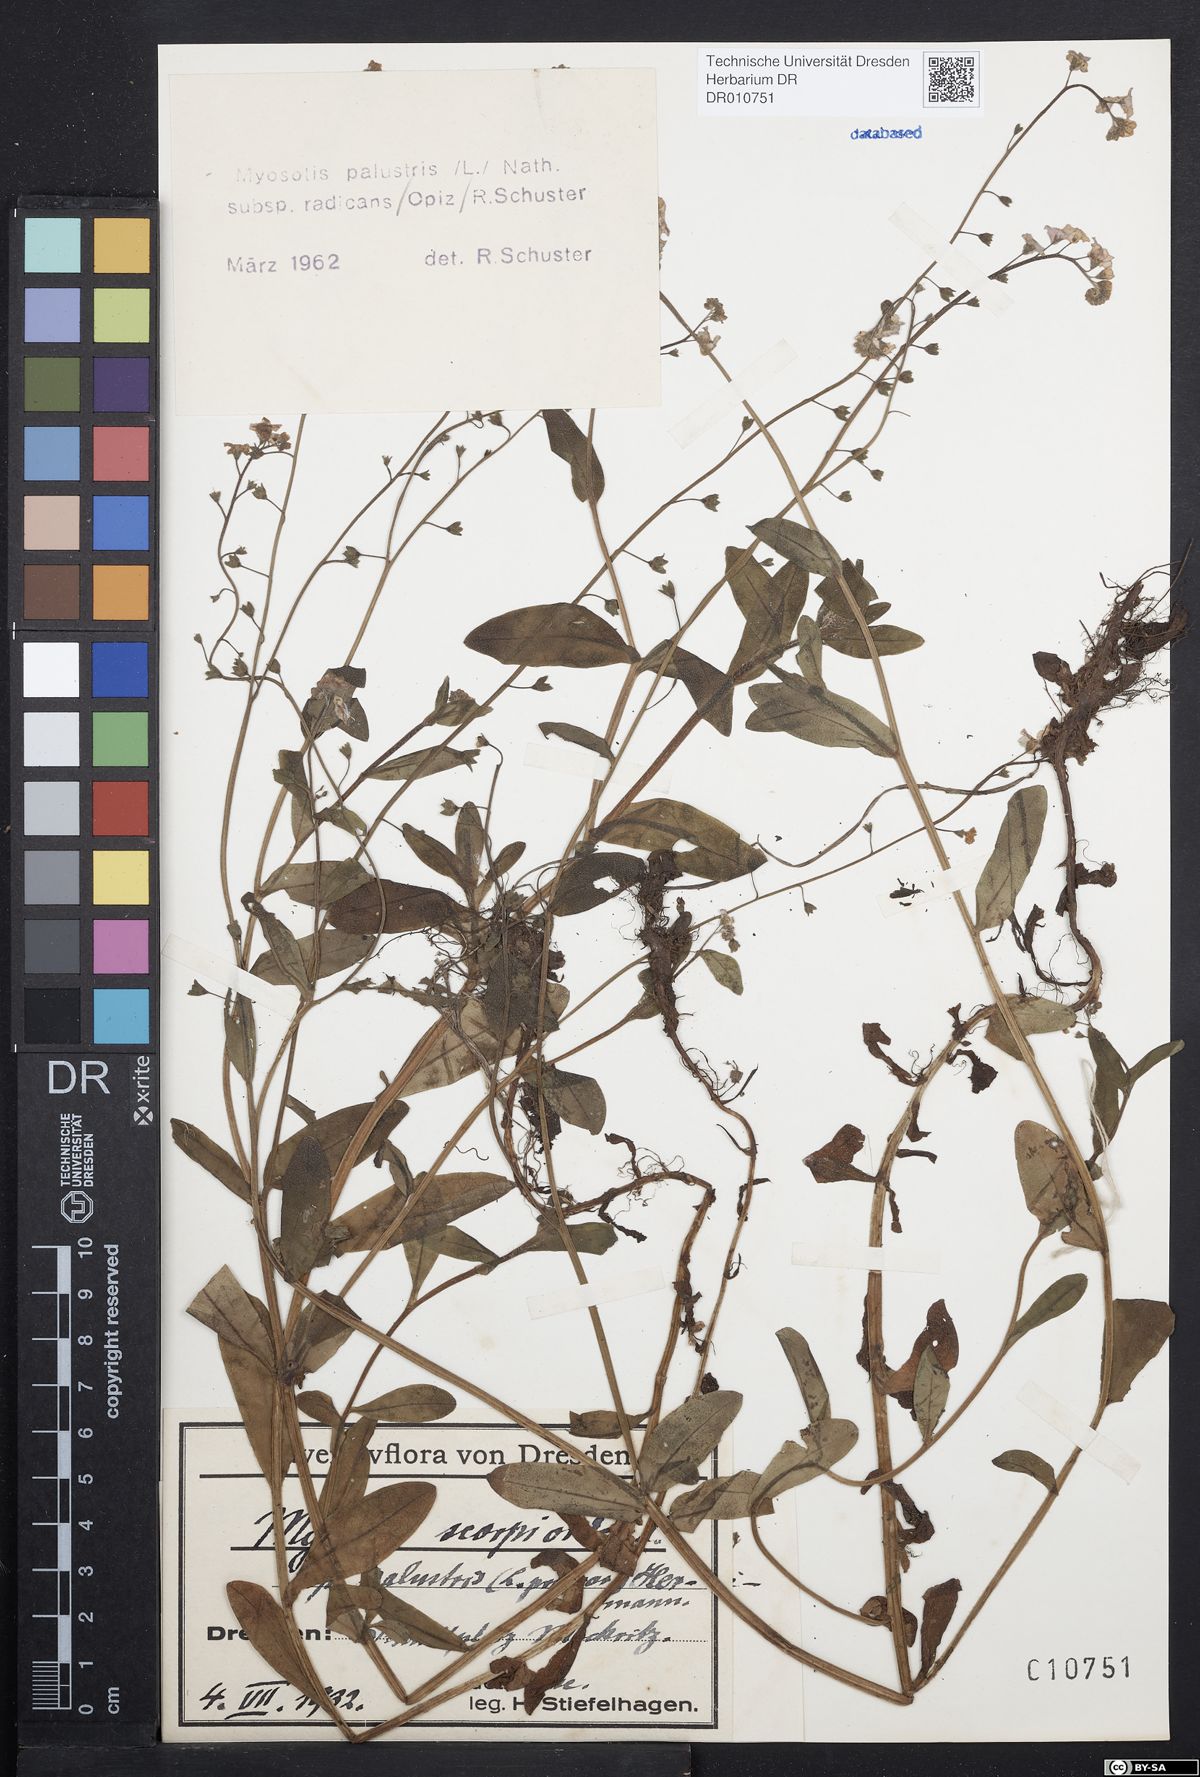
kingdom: Plantae
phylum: Tracheophyta
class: Magnoliopsida
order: Boraginales
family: Boraginaceae
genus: Myosotis
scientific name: Myosotis scorpioides
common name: Water forget-me-not
